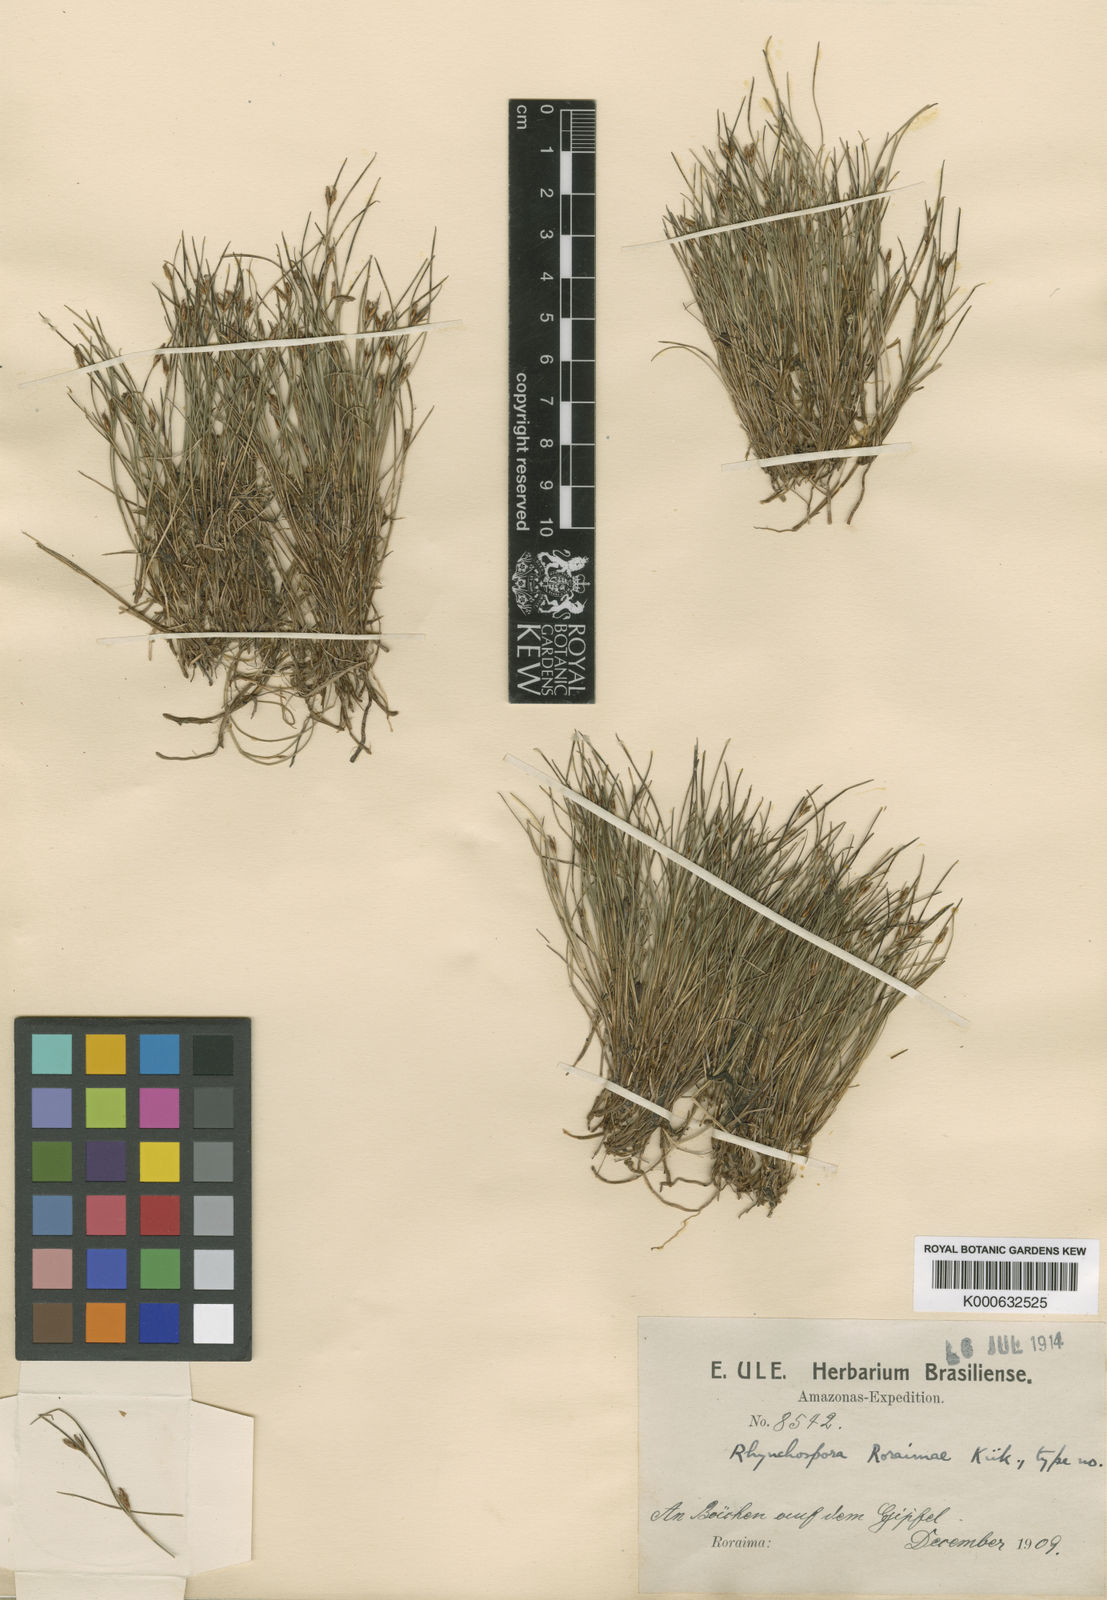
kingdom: Plantae
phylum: Tracheophyta
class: Liliopsida
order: Poales
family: Cyperaceae
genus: Rhynchospora
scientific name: Rhynchospora
